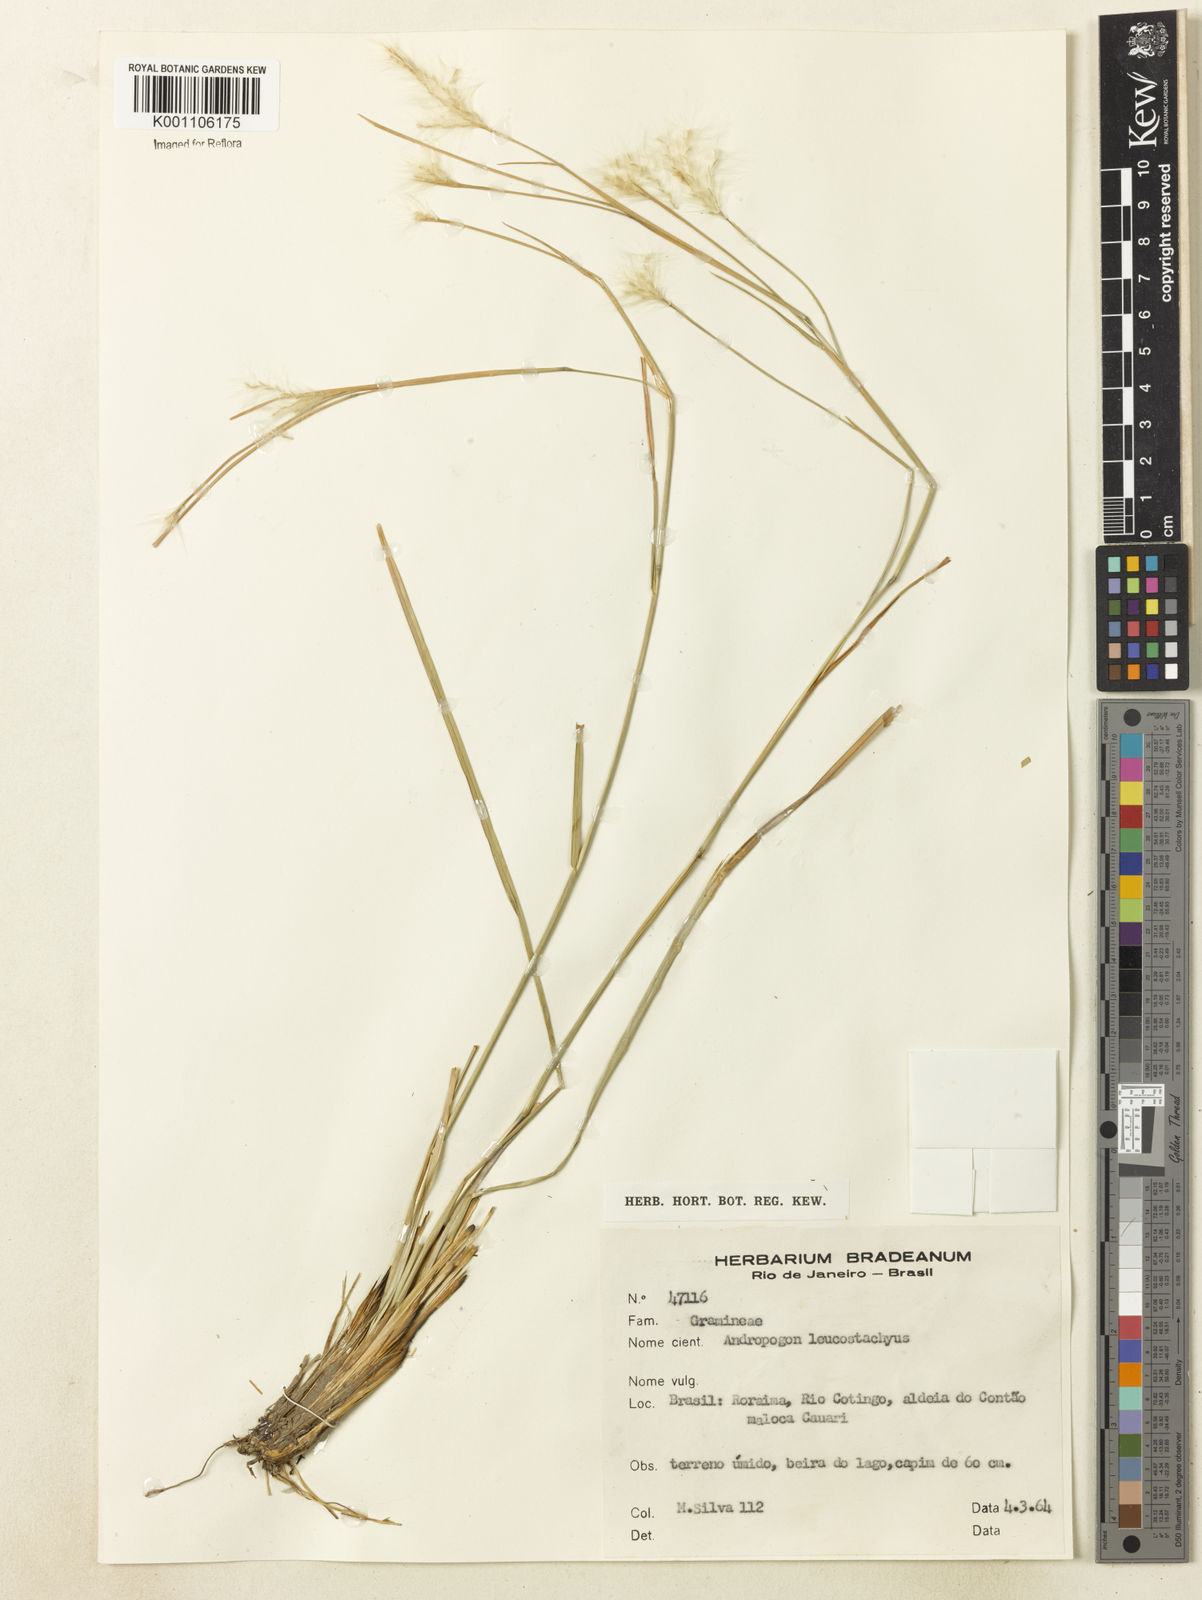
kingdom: Plantae
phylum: Tracheophyta
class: Liliopsida
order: Poales
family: Poaceae
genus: Andropogon
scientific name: Andropogon leucostachyus
